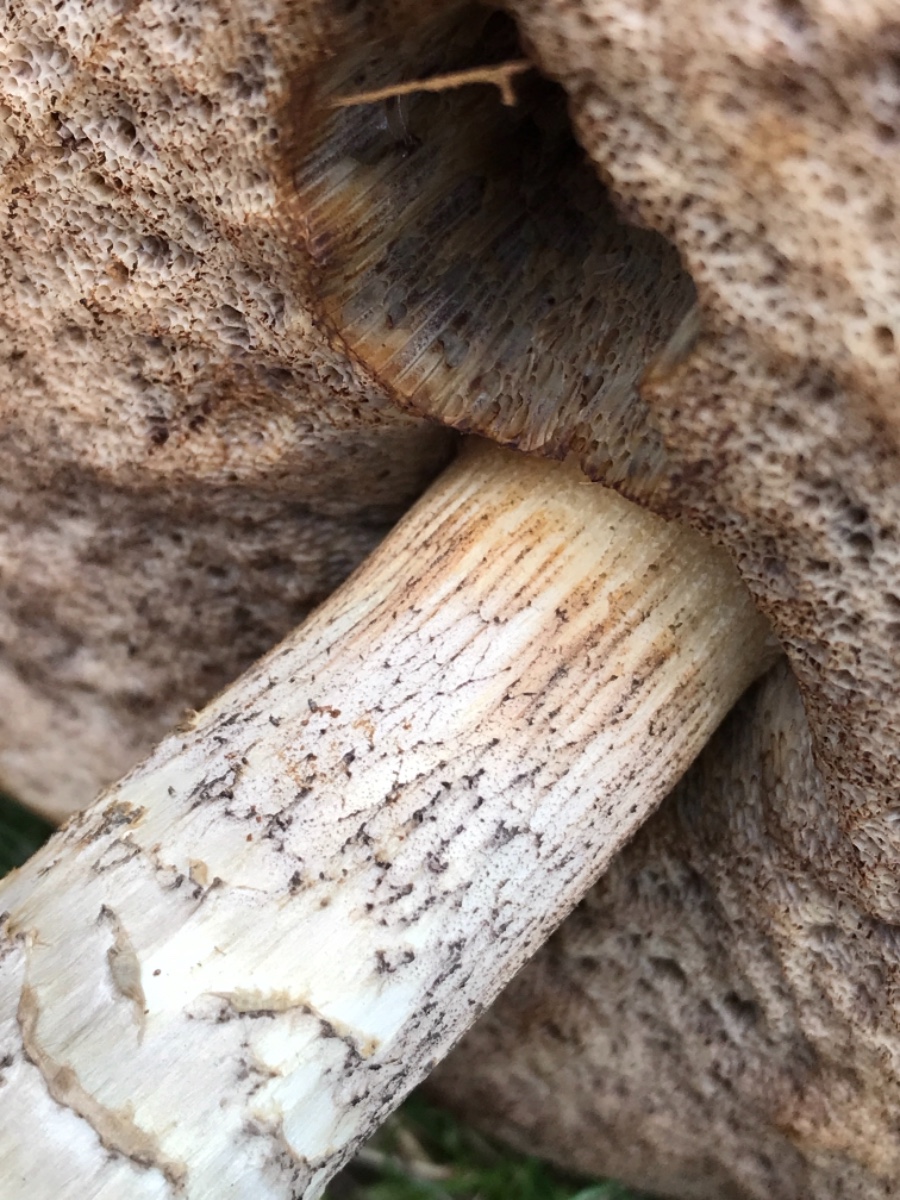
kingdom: Fungi
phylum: Basidiomycota
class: Agaricomycetes
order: Boletales
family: Boletaceae
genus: Leccinum
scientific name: Leccinum
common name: skælrørhat
